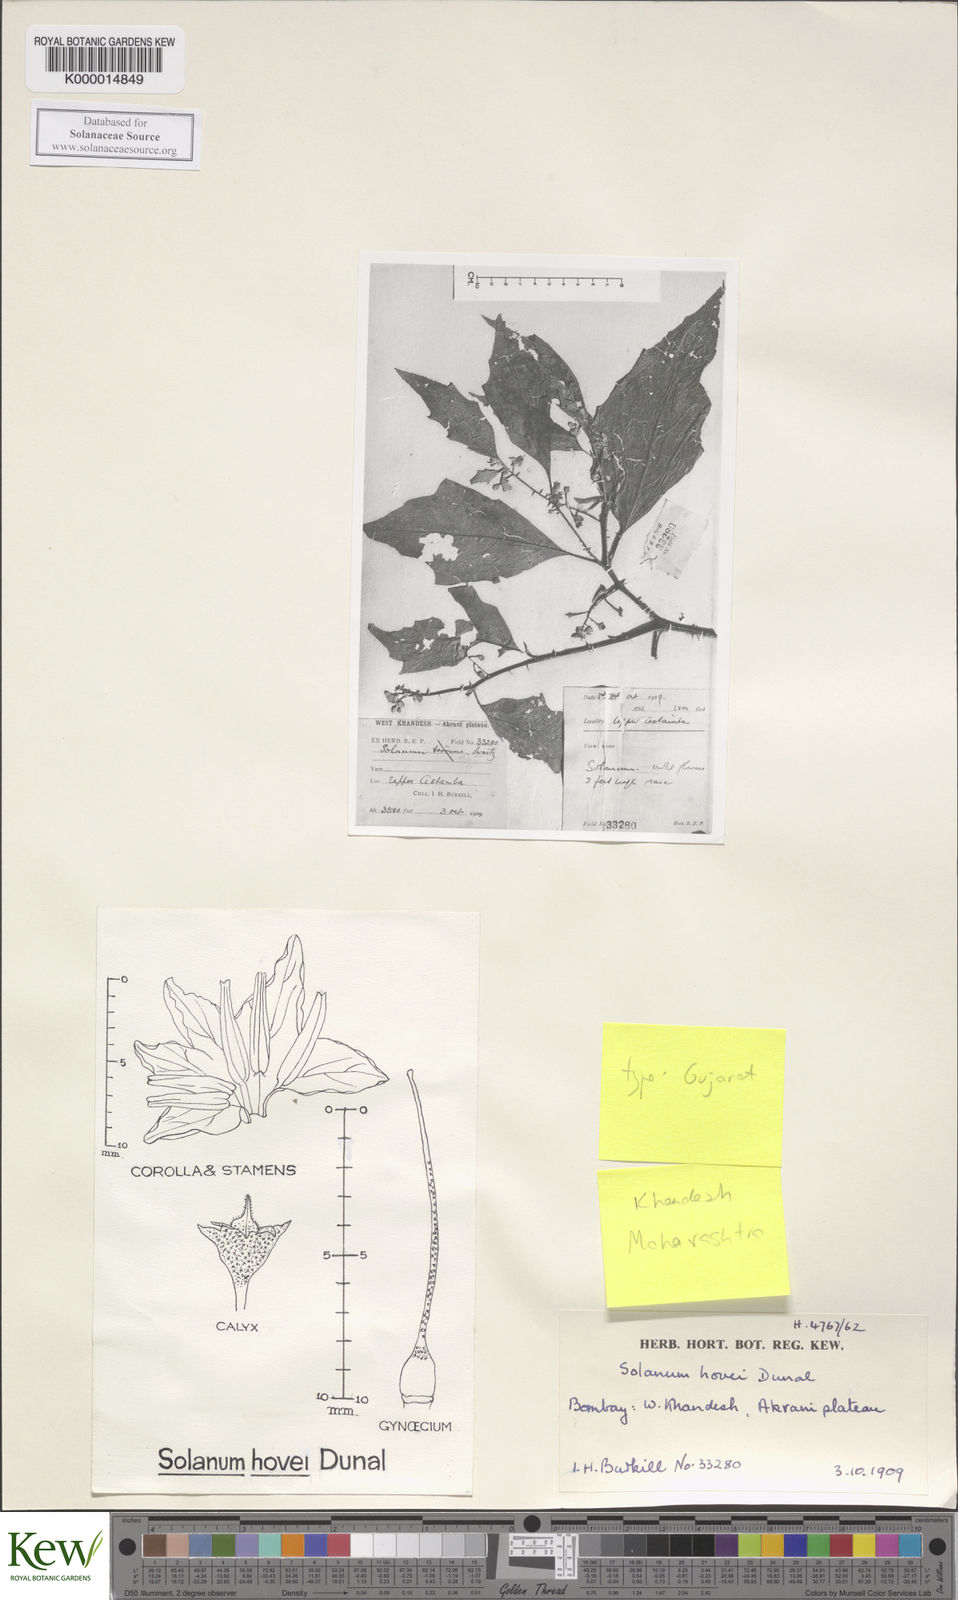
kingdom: Plantae
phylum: Tracheophyta
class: Magnoliopsida
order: Solanales
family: Solanaceae
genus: Solanum
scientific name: Solanum hovei
